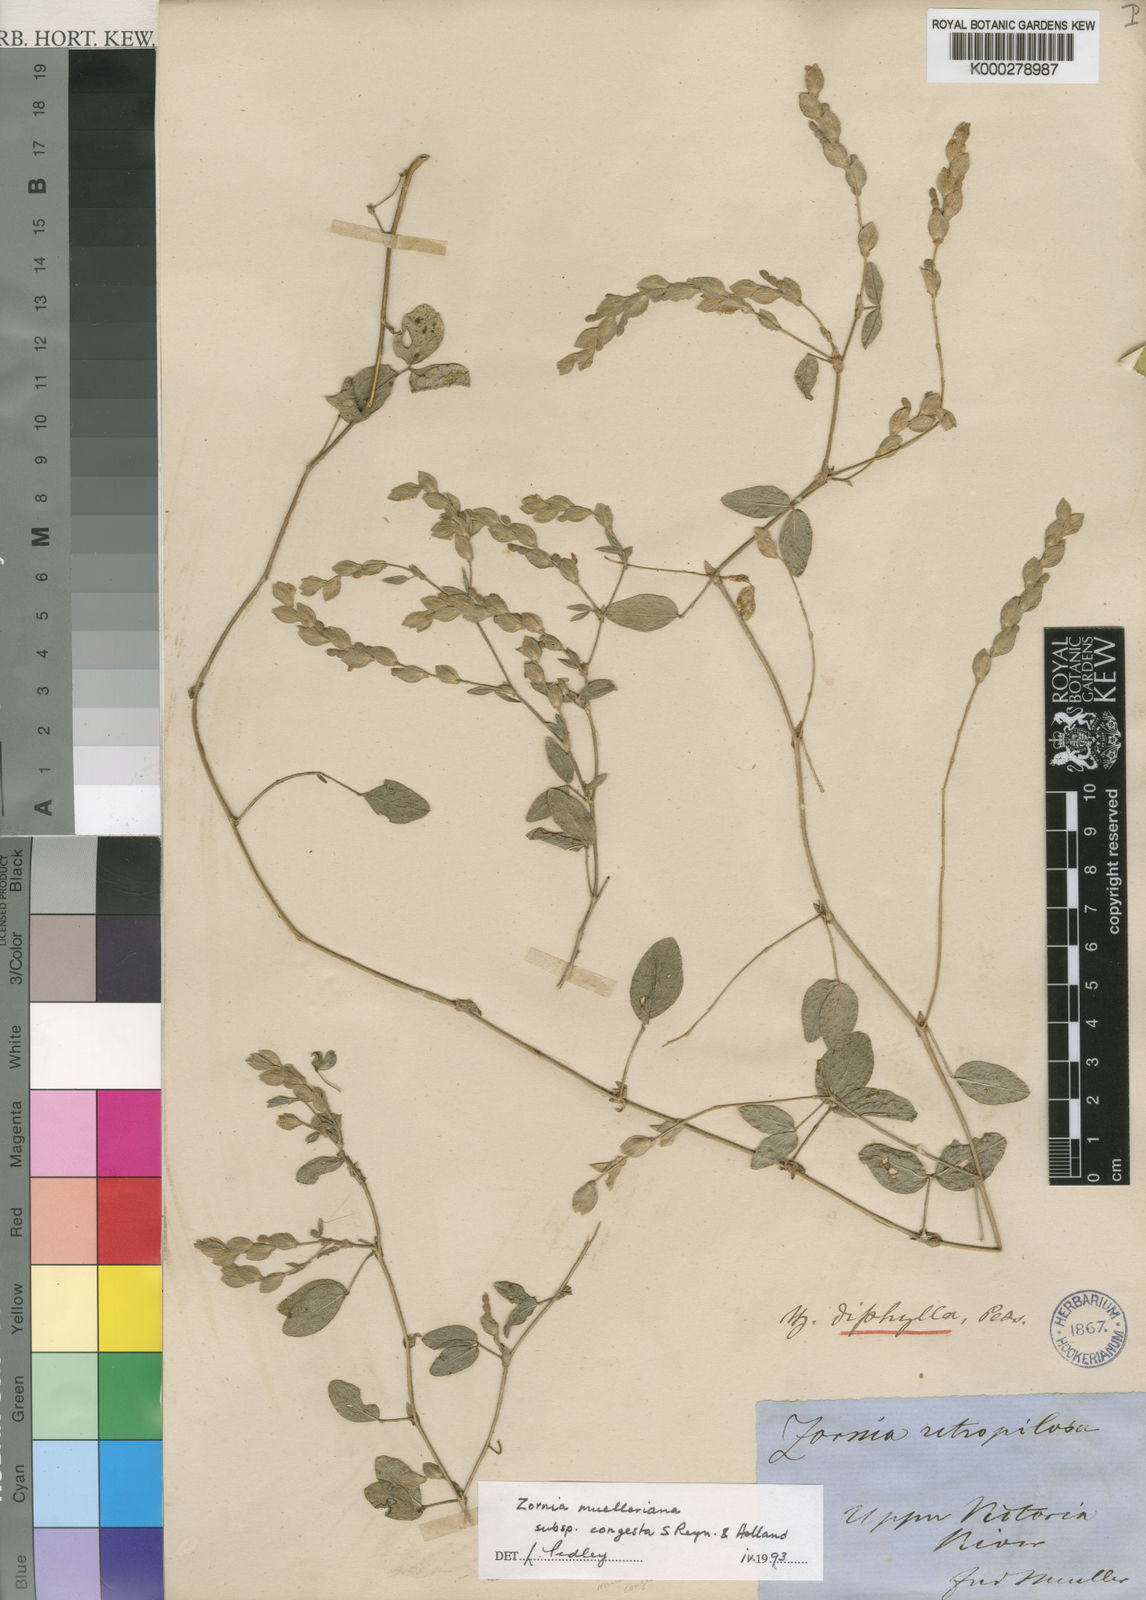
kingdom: Plantae
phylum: Tracheophyta
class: Magnoliopsida
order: Fabales
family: Fabaceae
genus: Zornia
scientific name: Zornia muelleriana
